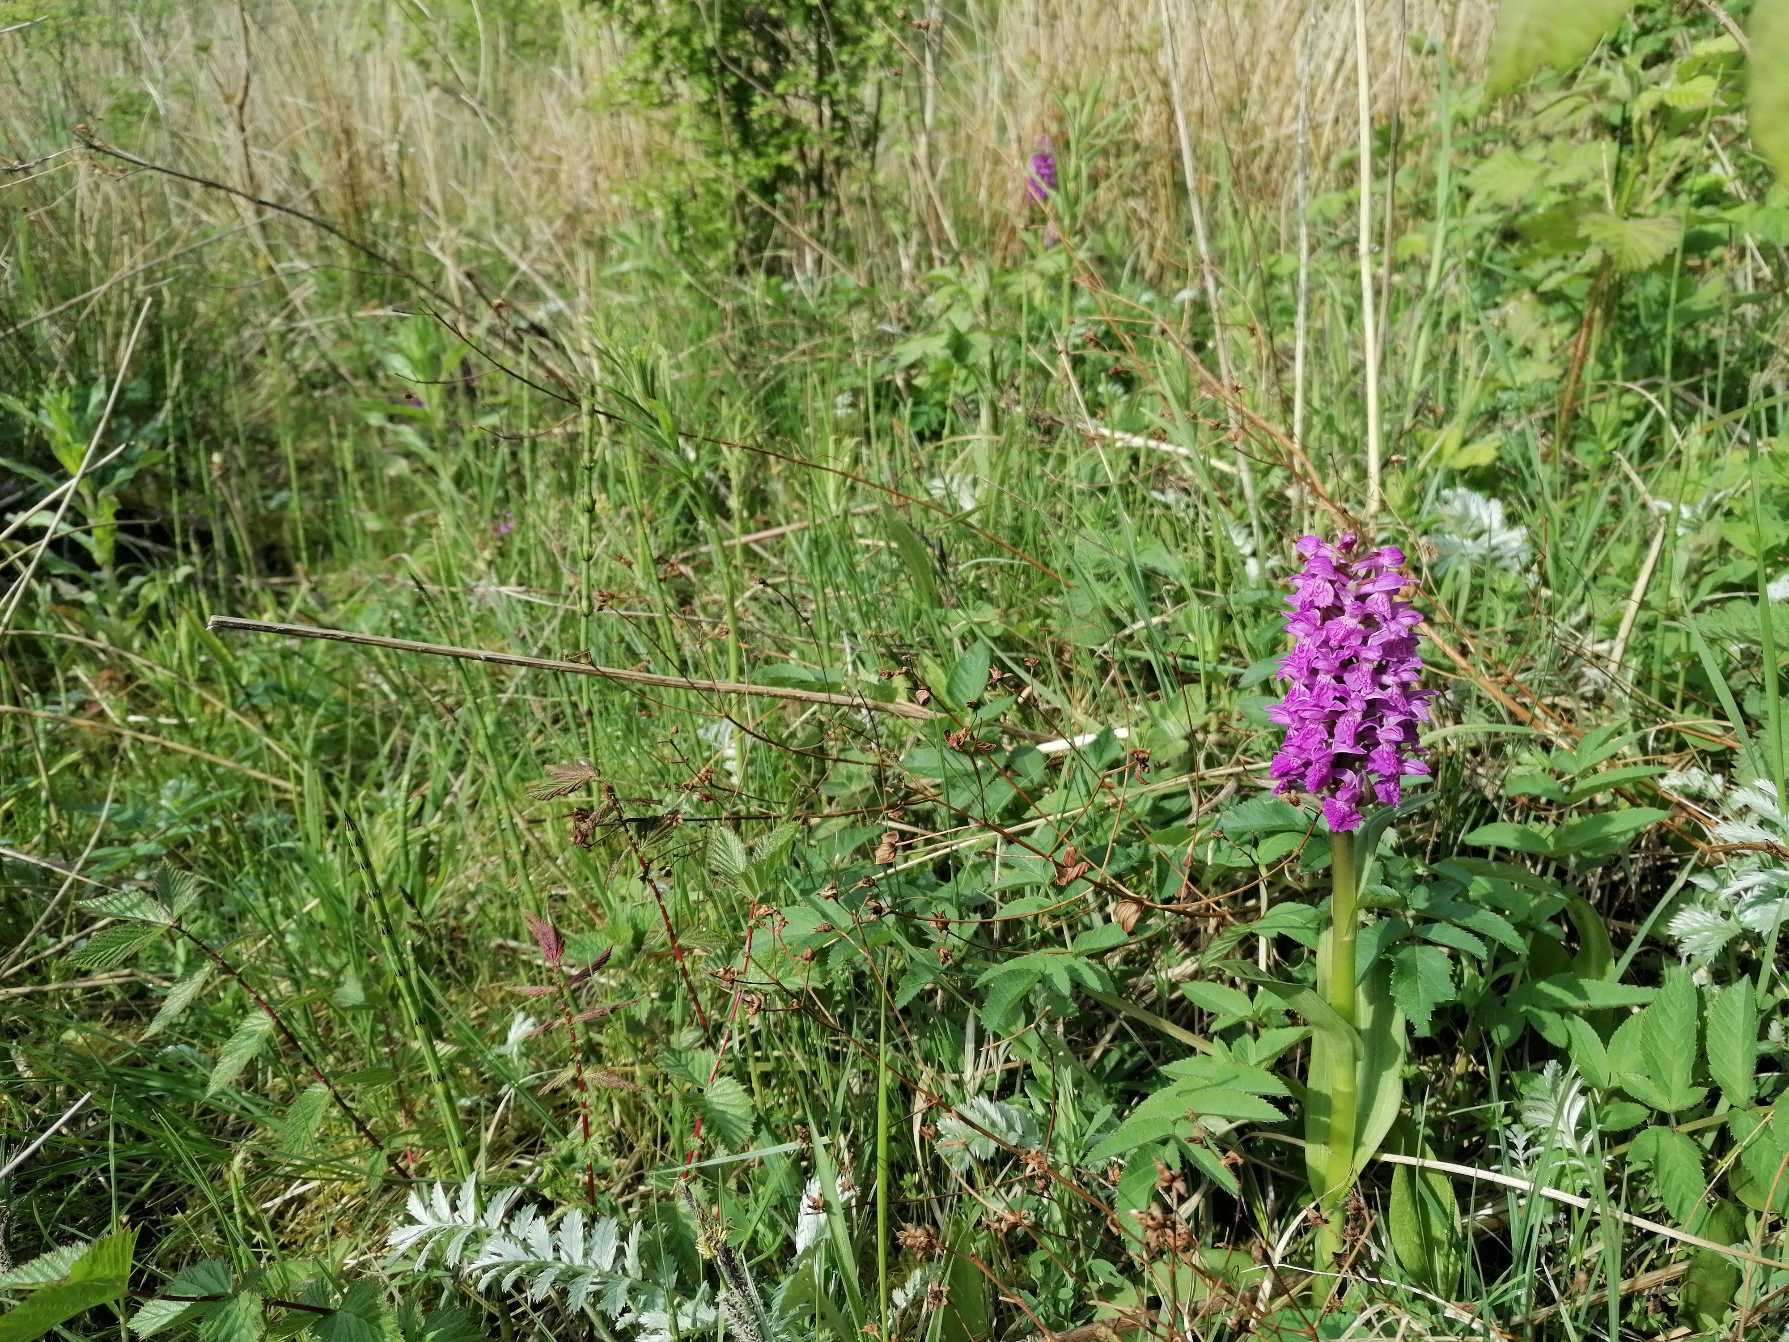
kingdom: Plantae
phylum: Tracheophyta
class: Liliopsida
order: Asparagales
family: Orchidaceae
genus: Dactylorhiza
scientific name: Dactylorhiza majalis
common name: Maj-gøgeurt
